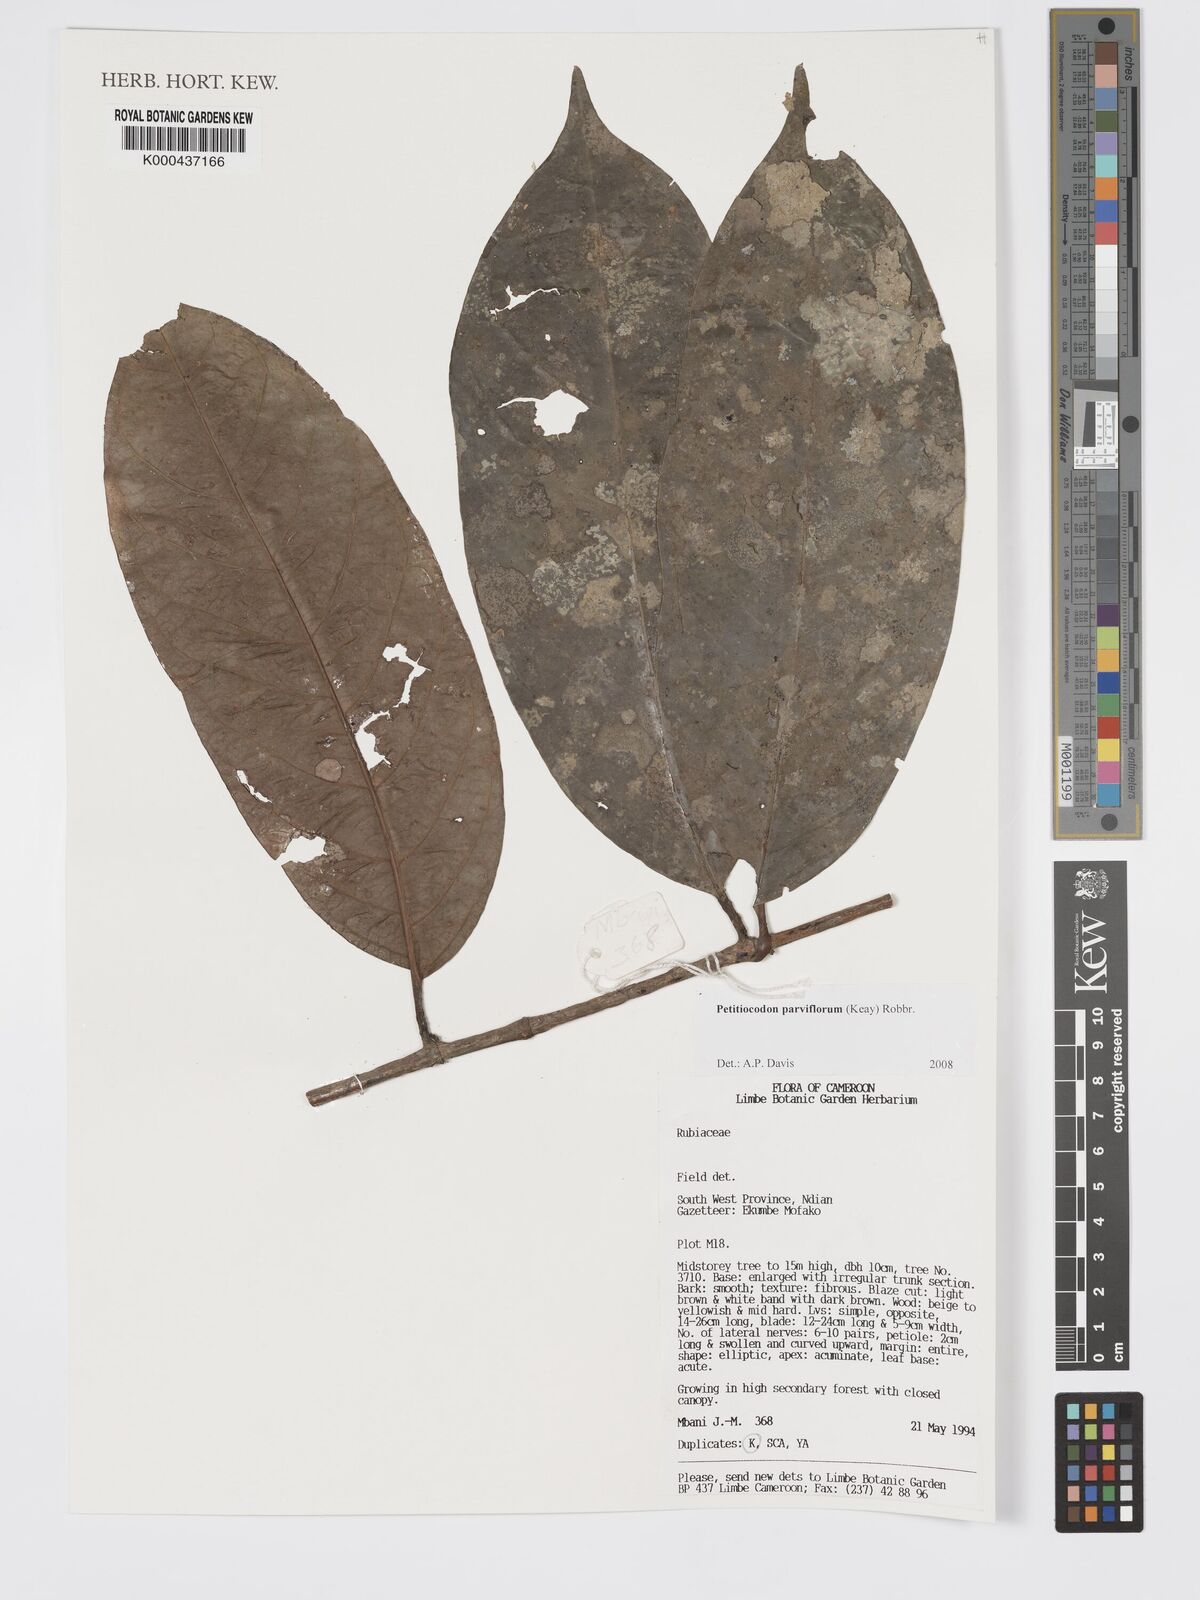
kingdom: Plantae
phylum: Tracheophyta
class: Magnoliopsida
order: Gentianales
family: Rubiaceae
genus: Petitiocodon
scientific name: Petitiocodon parviflorum
